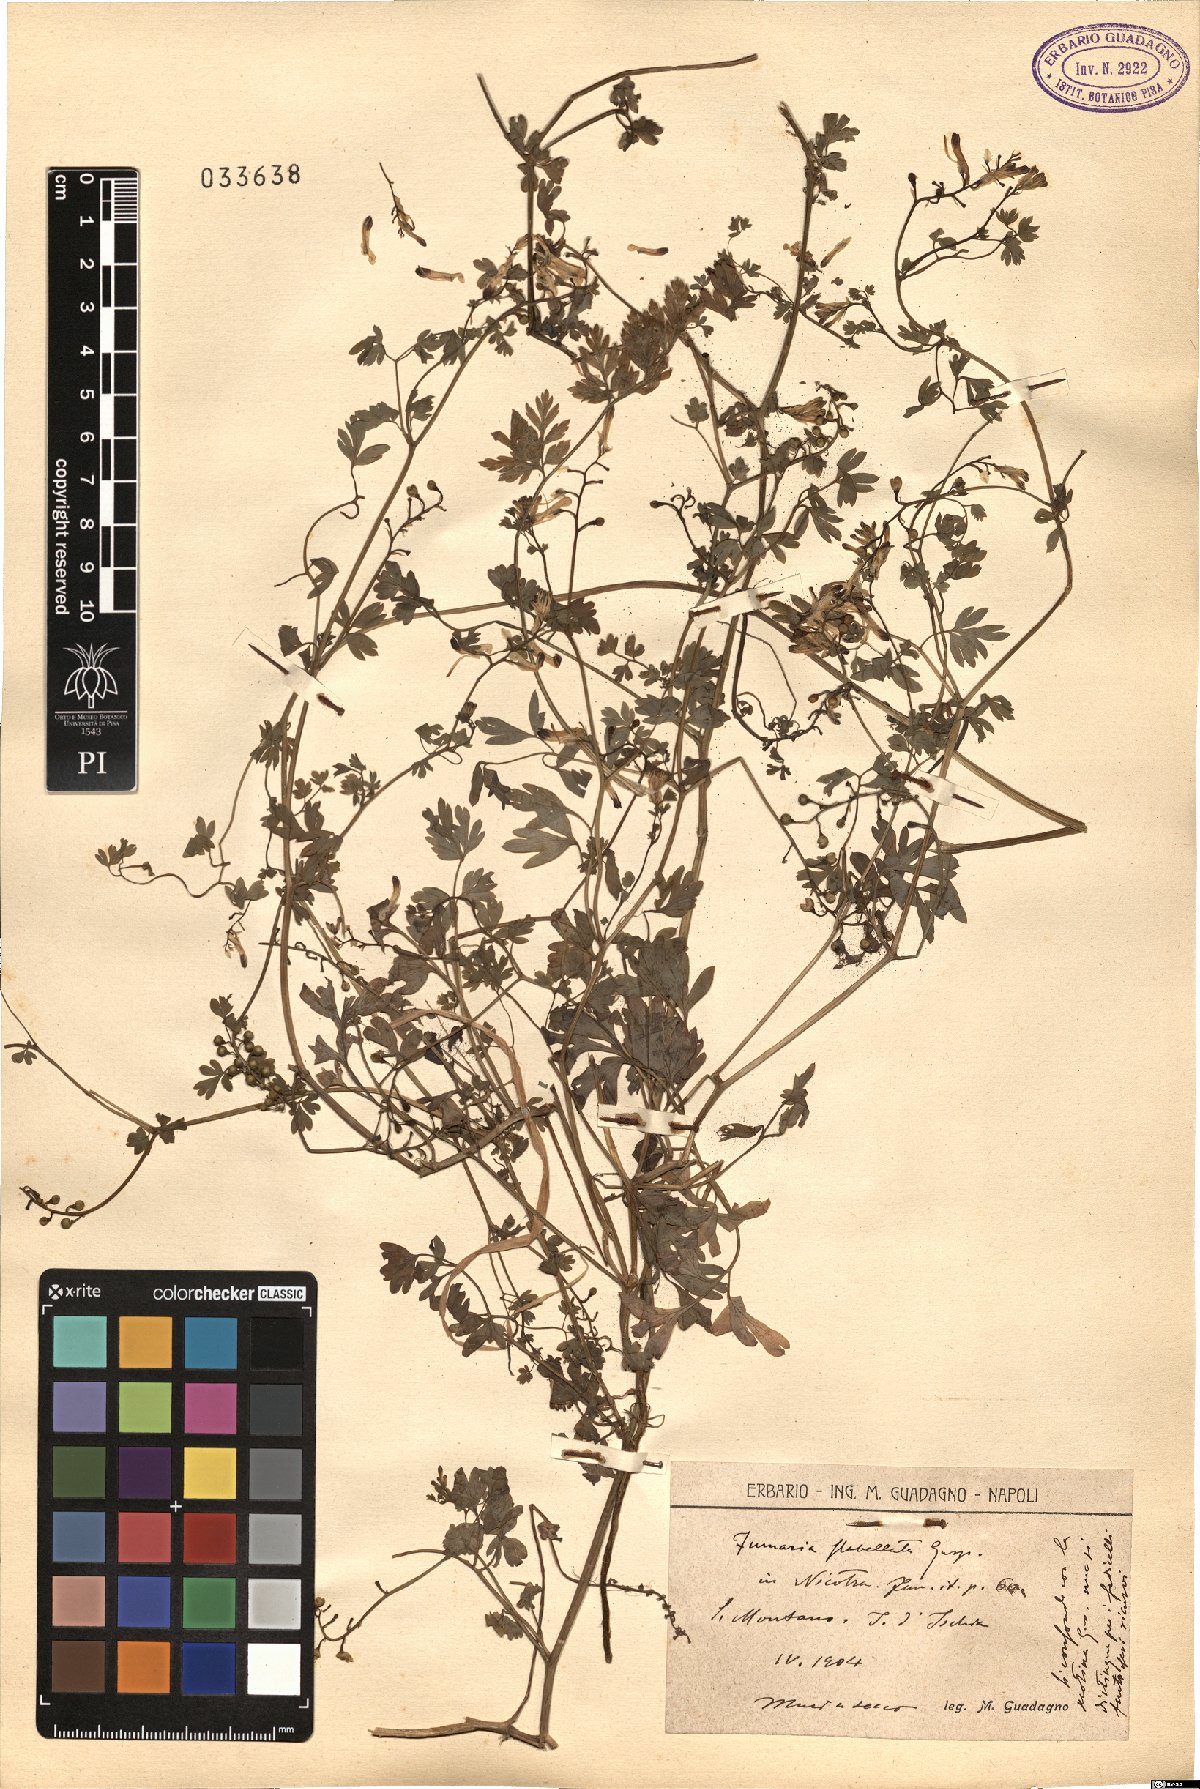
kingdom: Plantae
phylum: Tracheophyta
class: Magnoliopsida
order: Ranunculales
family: Papaveraceae
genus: Fumaria
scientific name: Fumaria flabellata
